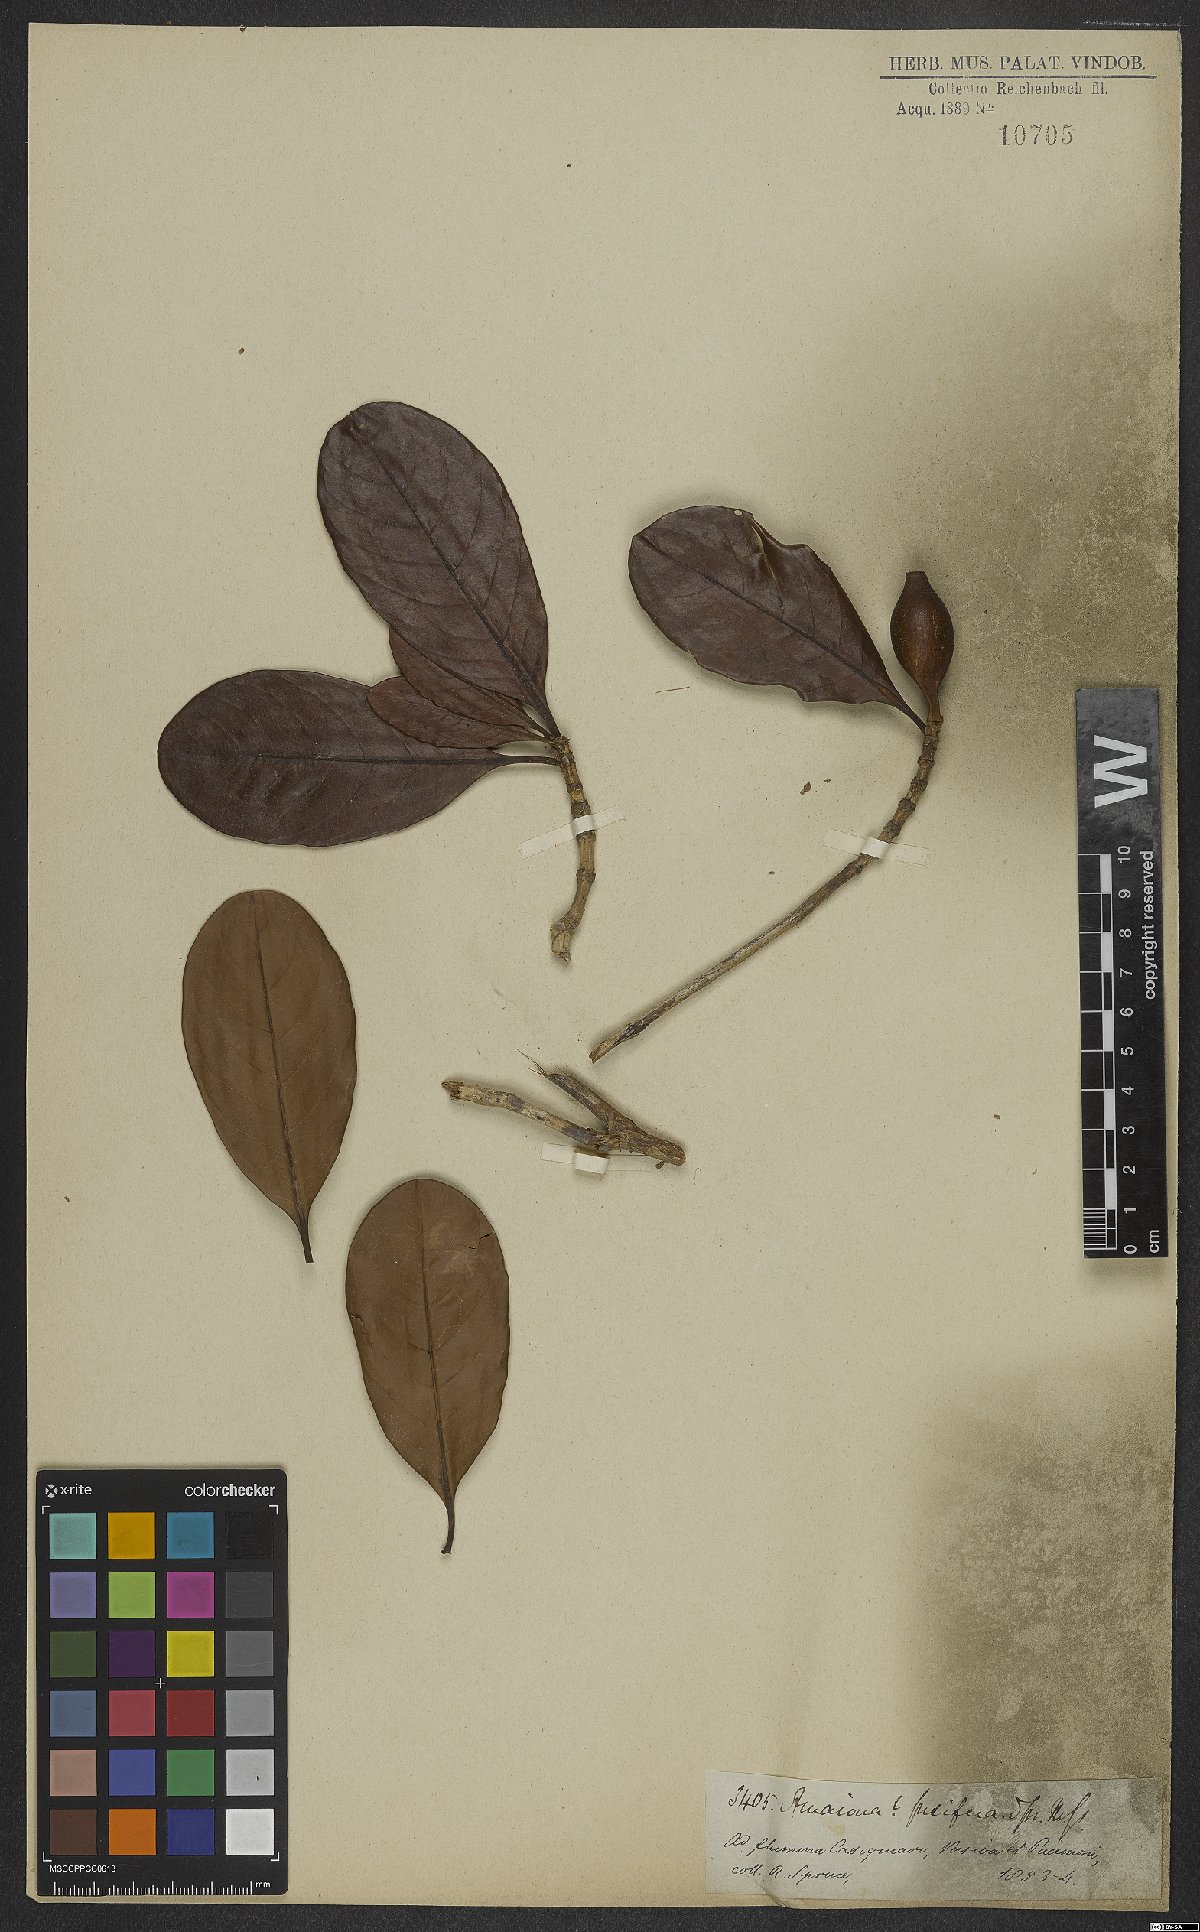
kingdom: Plantae
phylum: Tracheophyta
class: Magnoliopsida
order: Gentianales
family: Rubiaceae
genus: Duroia
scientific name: Duroia fusifera
